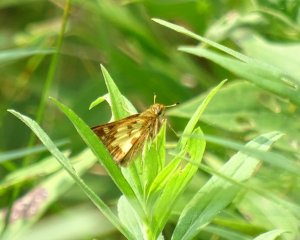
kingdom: Animalia
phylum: Arthropoda
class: Insecta
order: Lepidoptera
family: Hesperiidae
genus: Polites
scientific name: Polites coras
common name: Peck's Skipper
